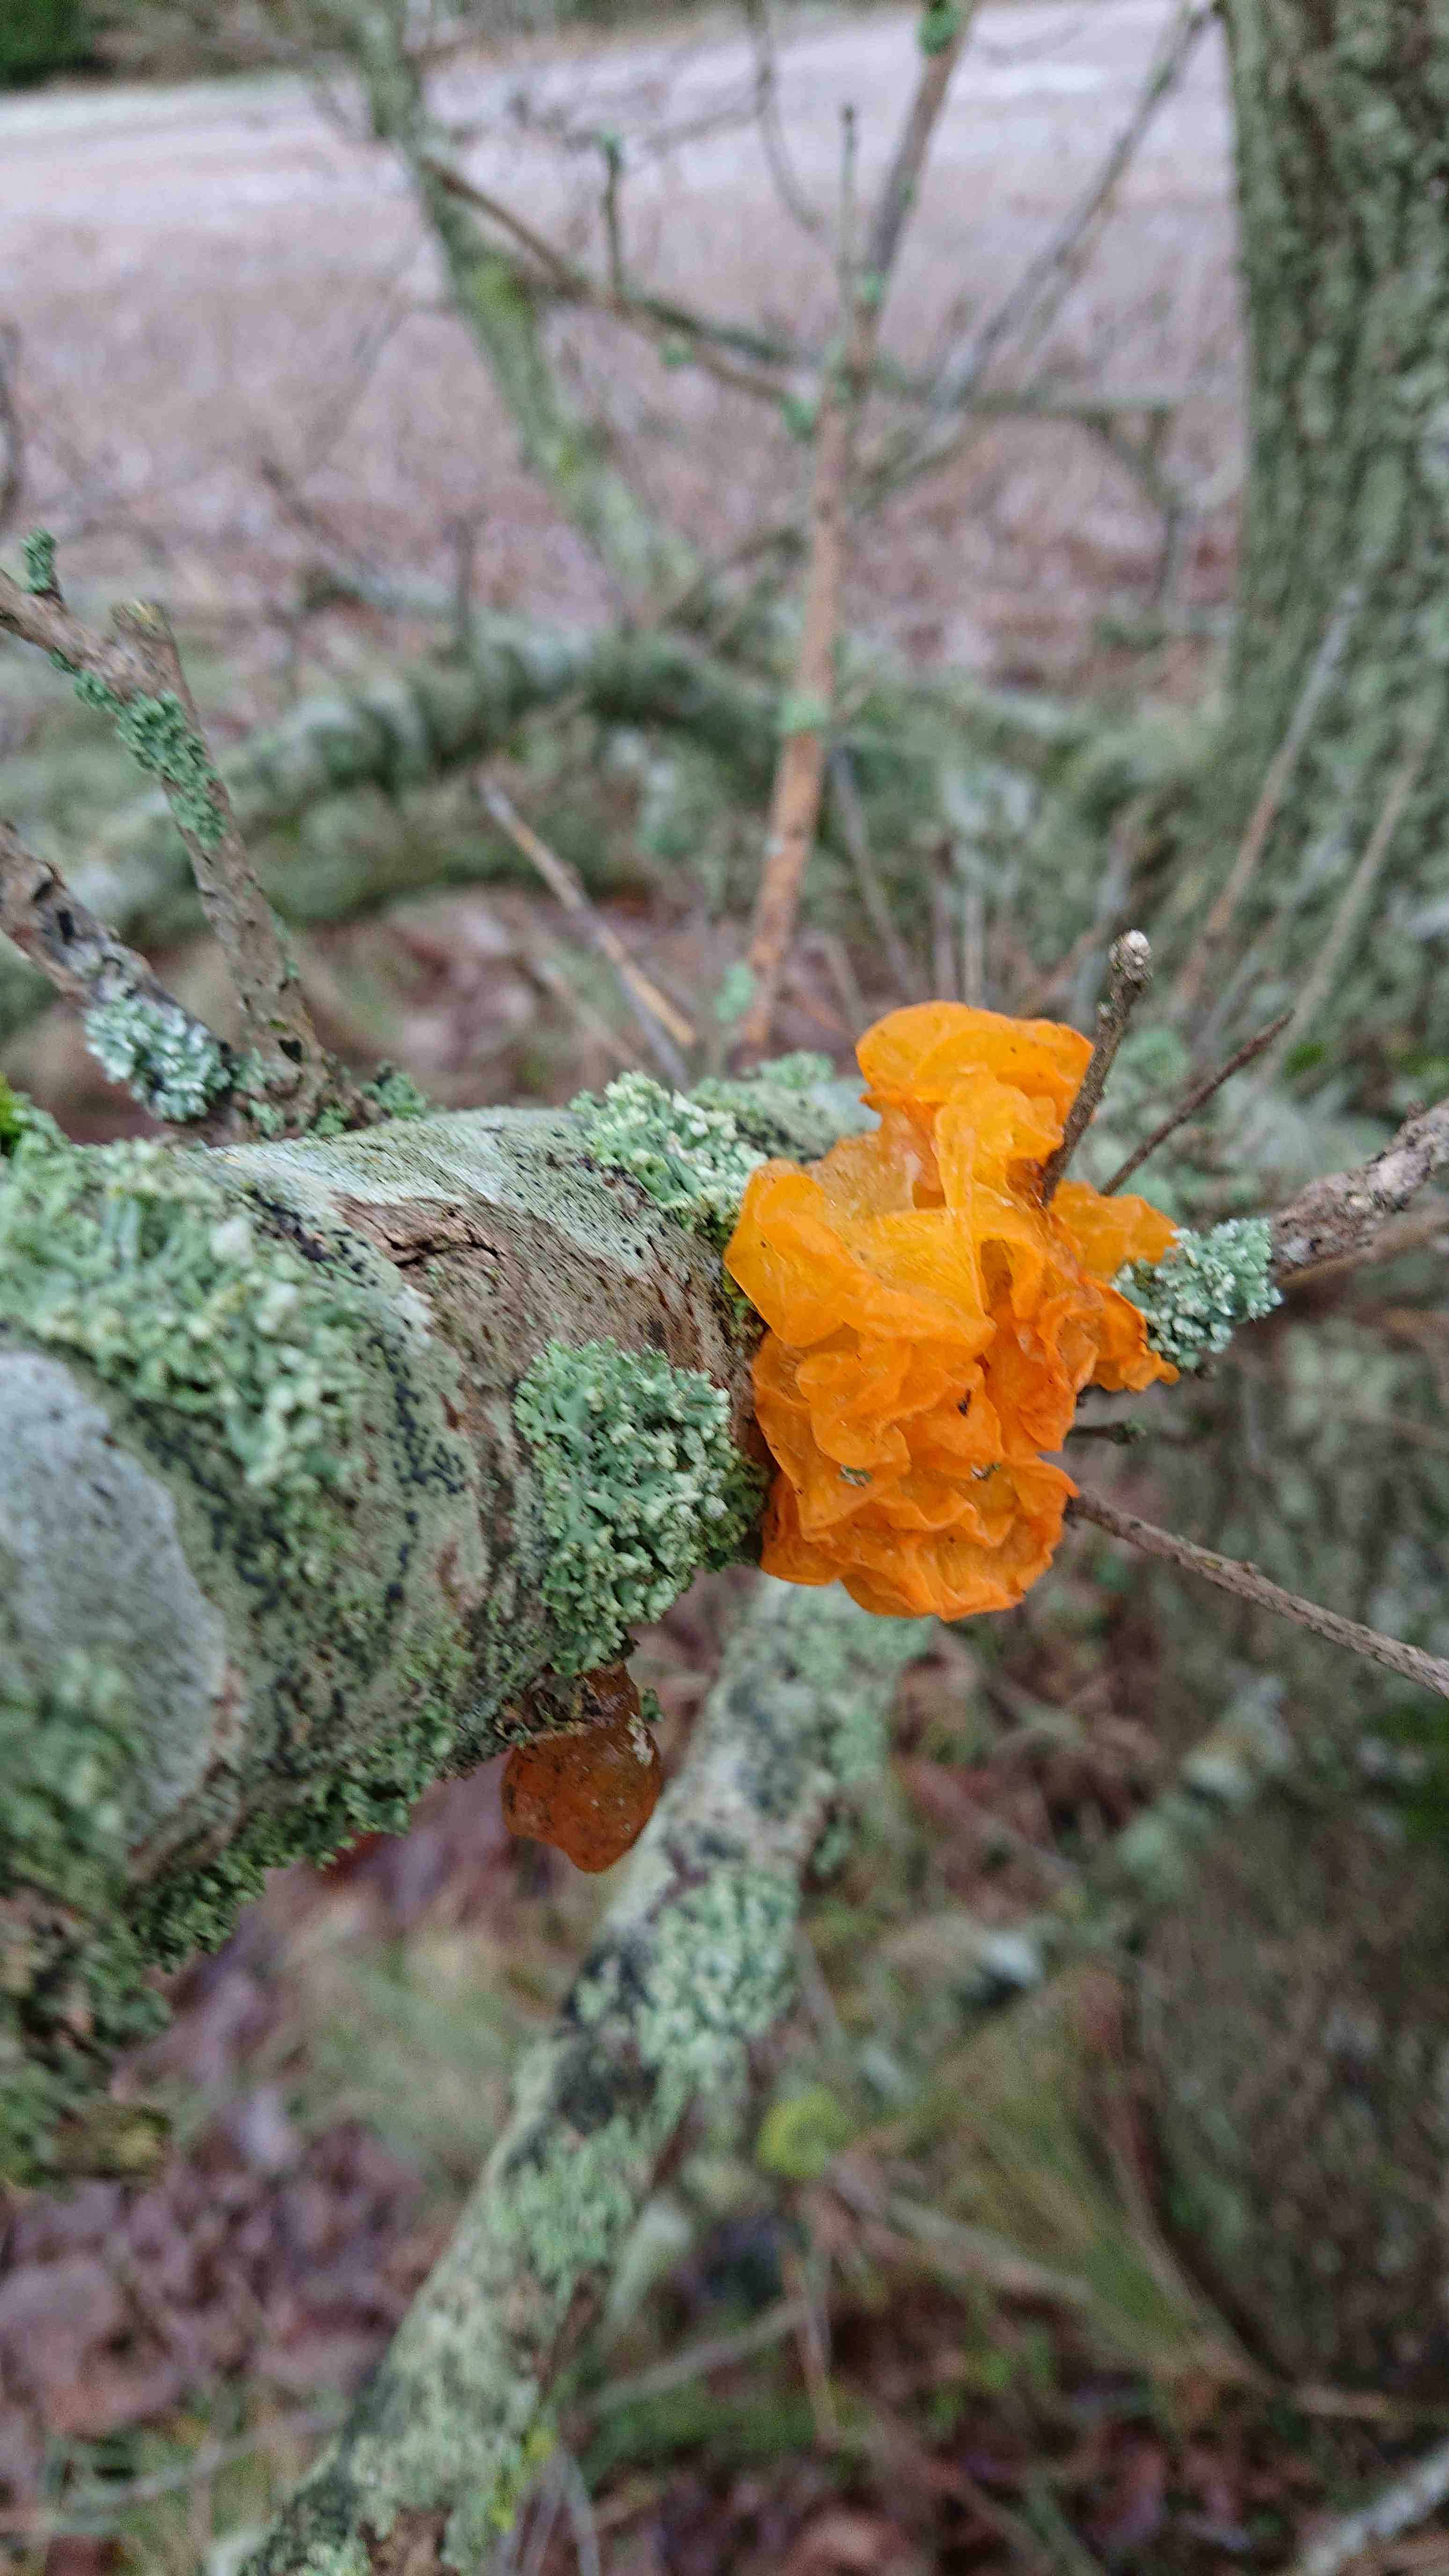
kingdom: Fungi
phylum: Basidiomycota
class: Tremellomycetes
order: Tremellales
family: Tremellaceae
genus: Tremella
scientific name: Tremella mesenterica
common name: gul bævresvamp
